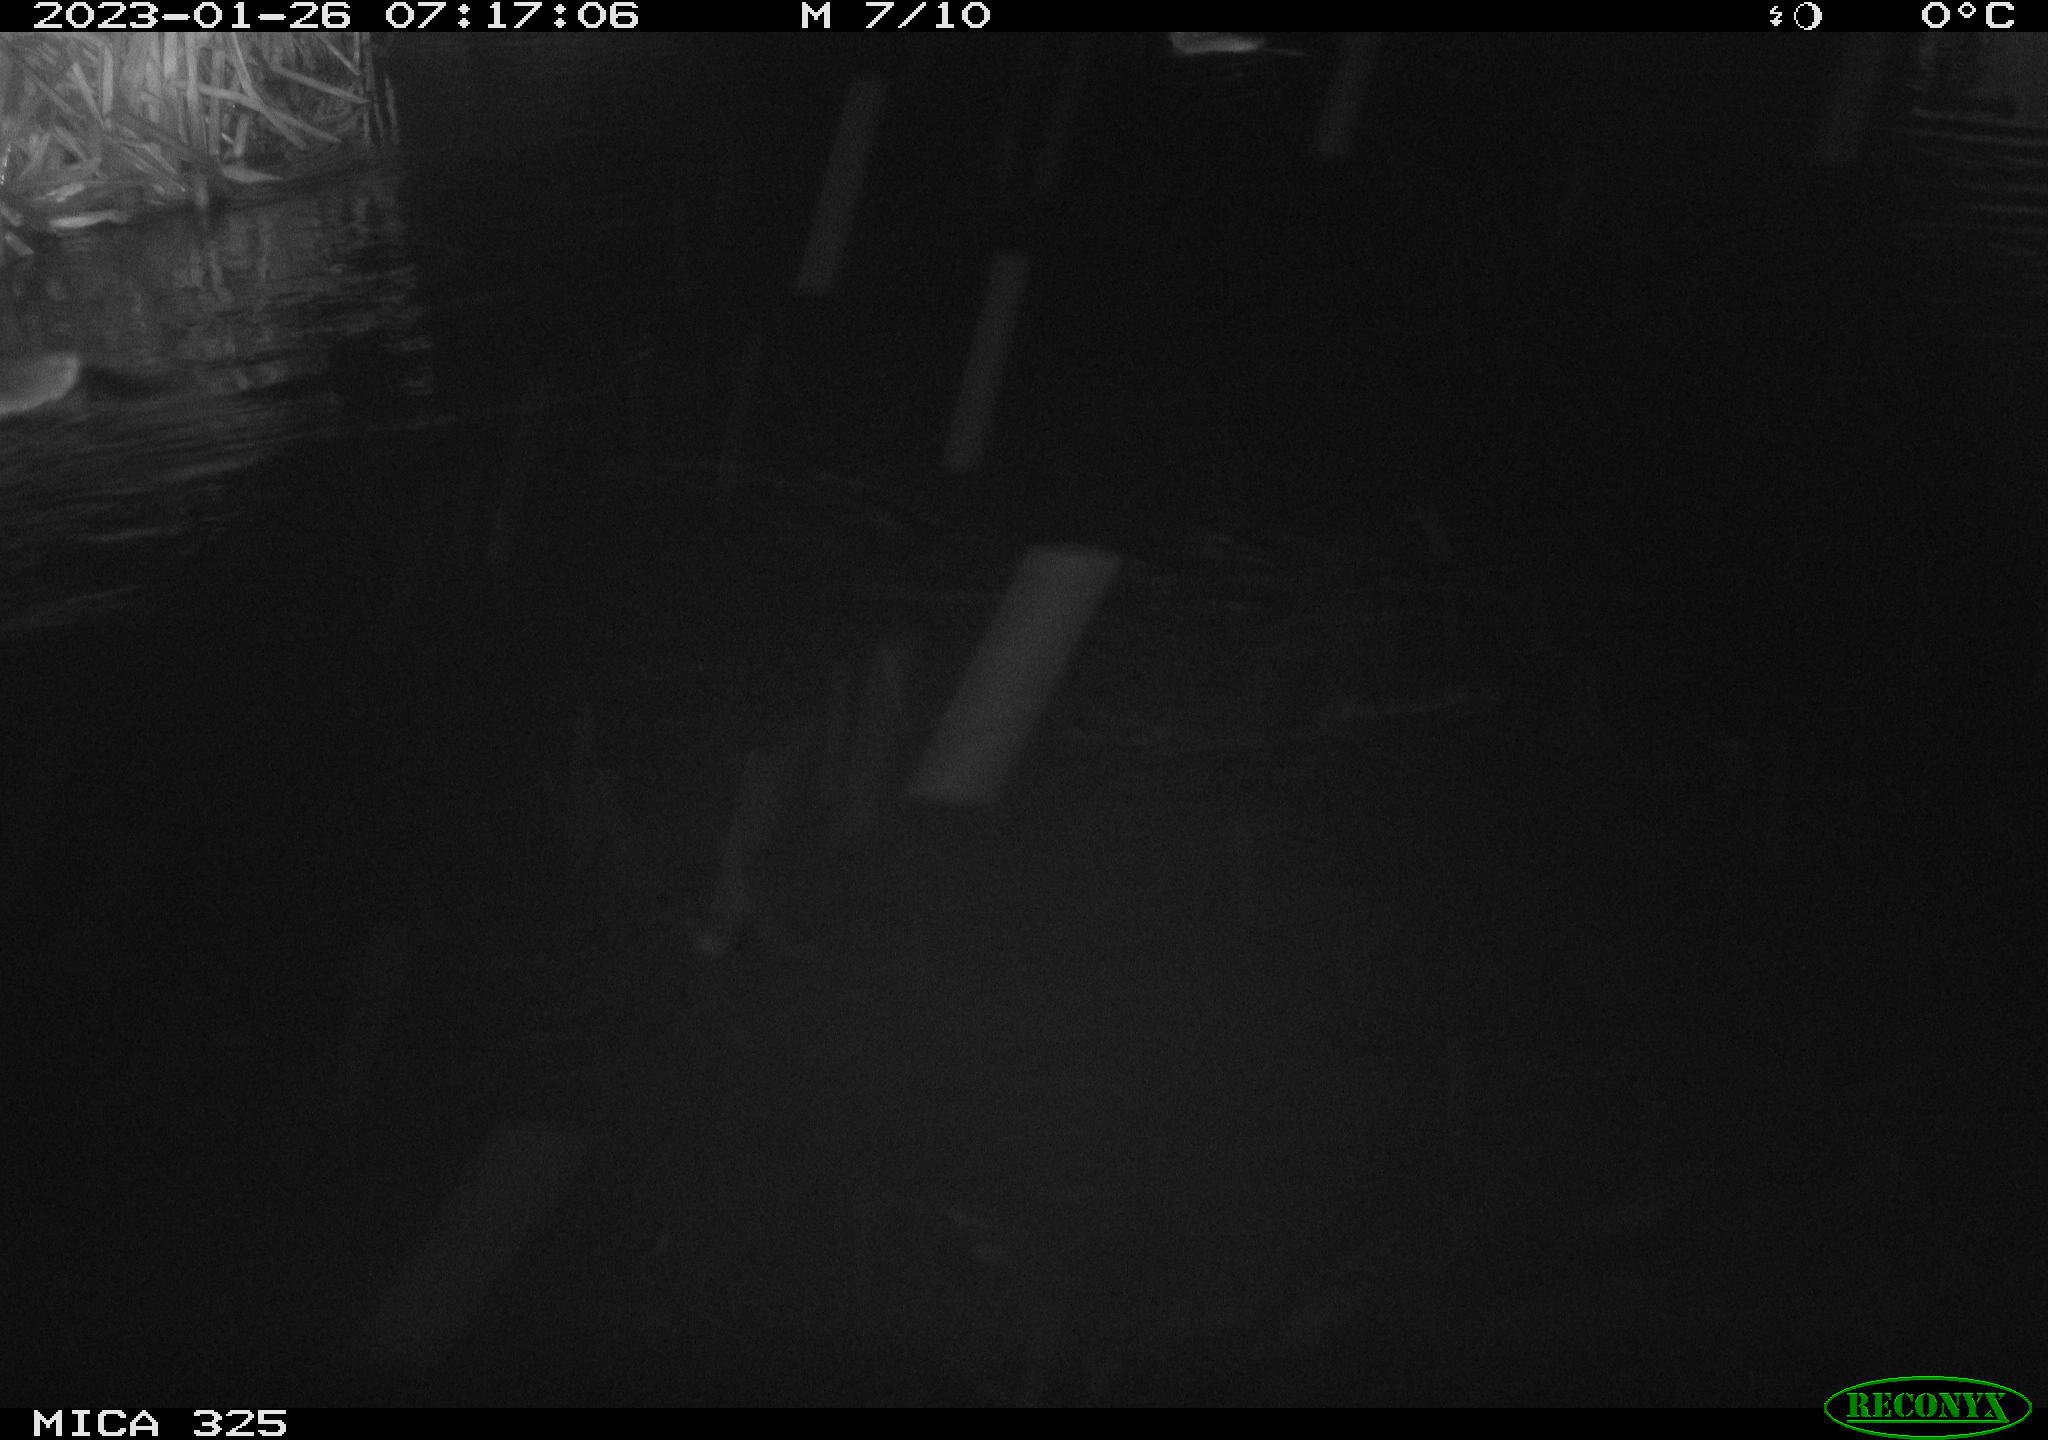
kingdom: Animalia
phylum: Chordata
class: Mammalia
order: Rodentia
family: Cricetidae
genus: Ondatra
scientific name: Ondatra zibethicus
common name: Muskrat
